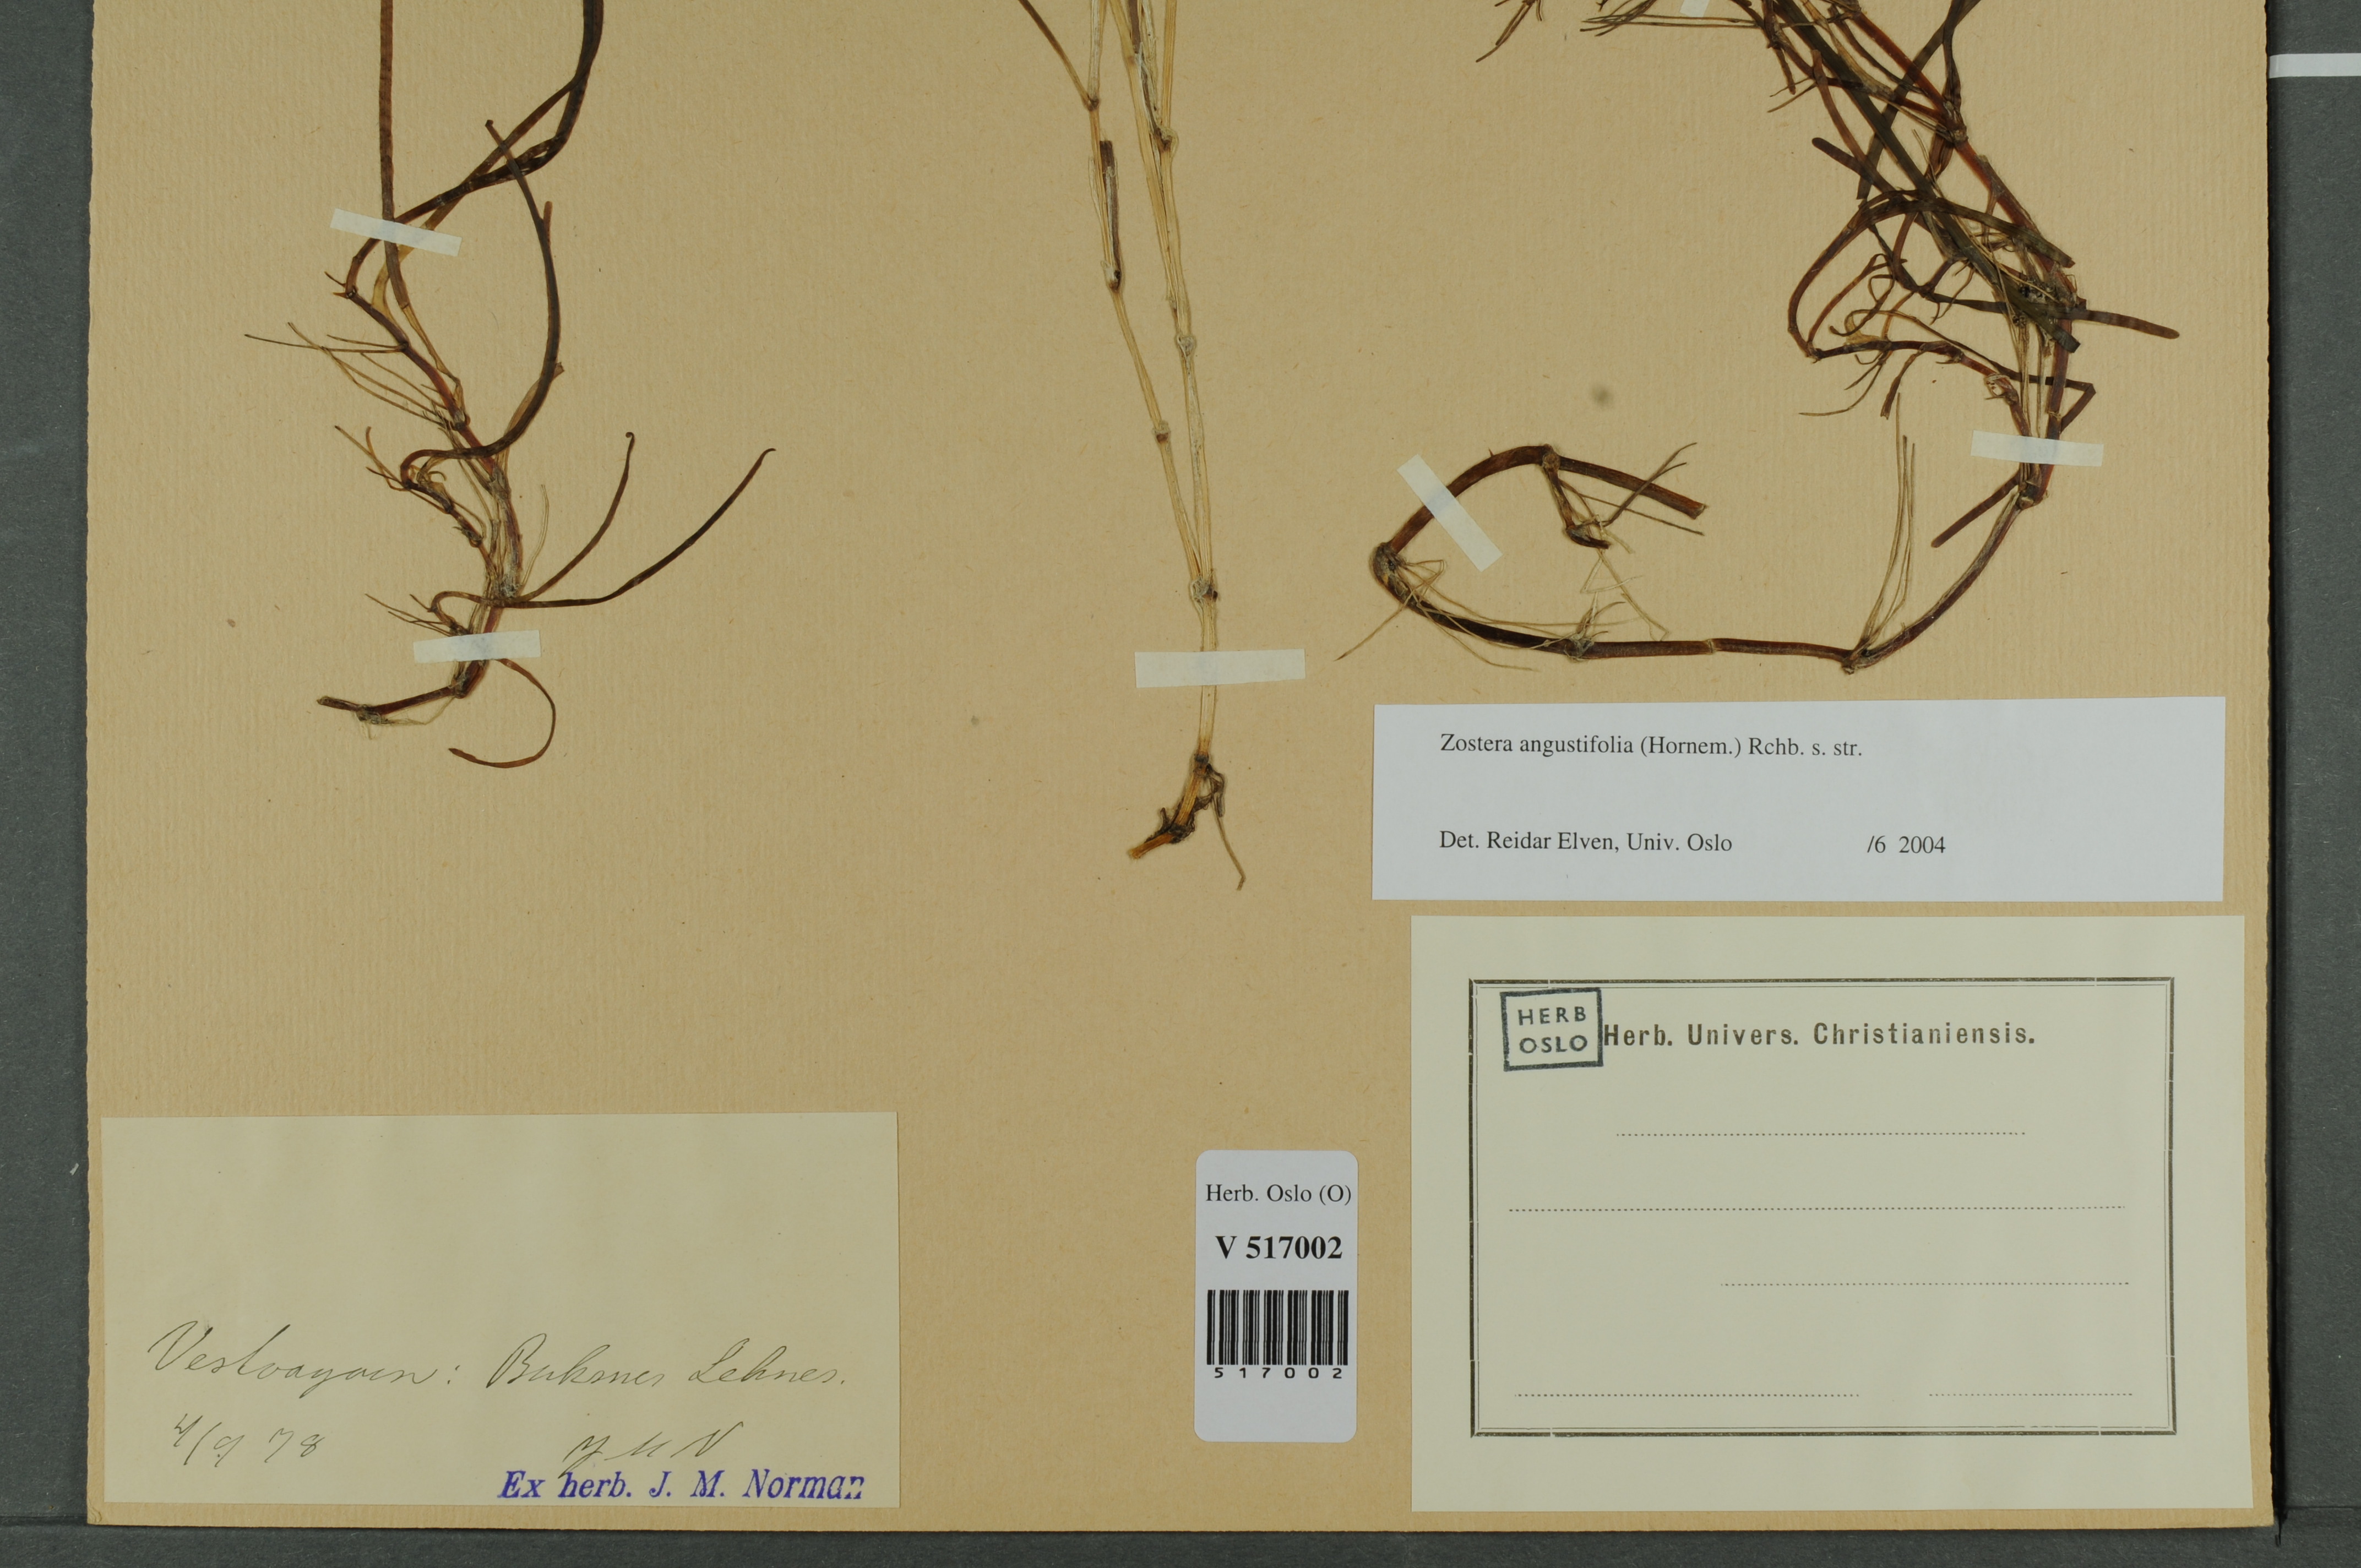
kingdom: Plantae
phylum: Tracheophyta
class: Liliopsida
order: Alismatales
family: Zosteraceae
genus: Zostera
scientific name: Zostera angustifolia
